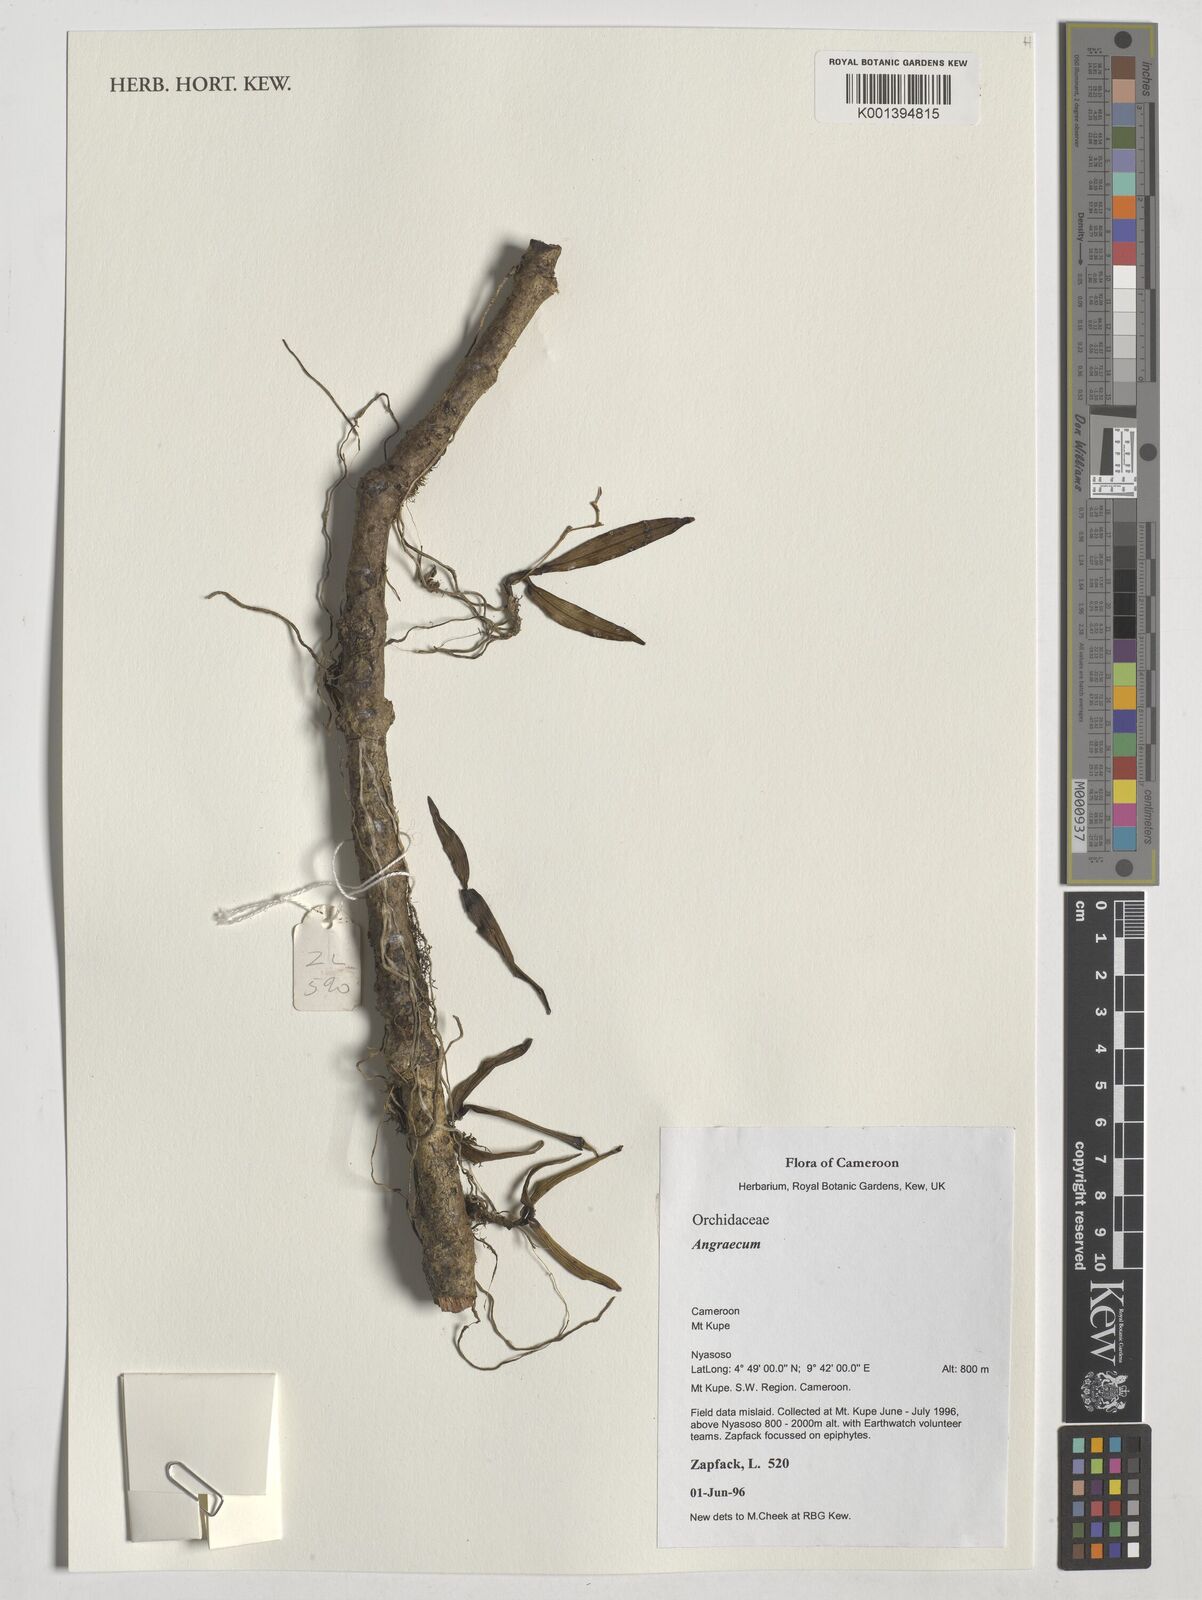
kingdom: Plantae
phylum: Tracheophyta
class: Liliopsida
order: Asparagales
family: Orchidaceae
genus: Angraecum
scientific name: Angraecum
